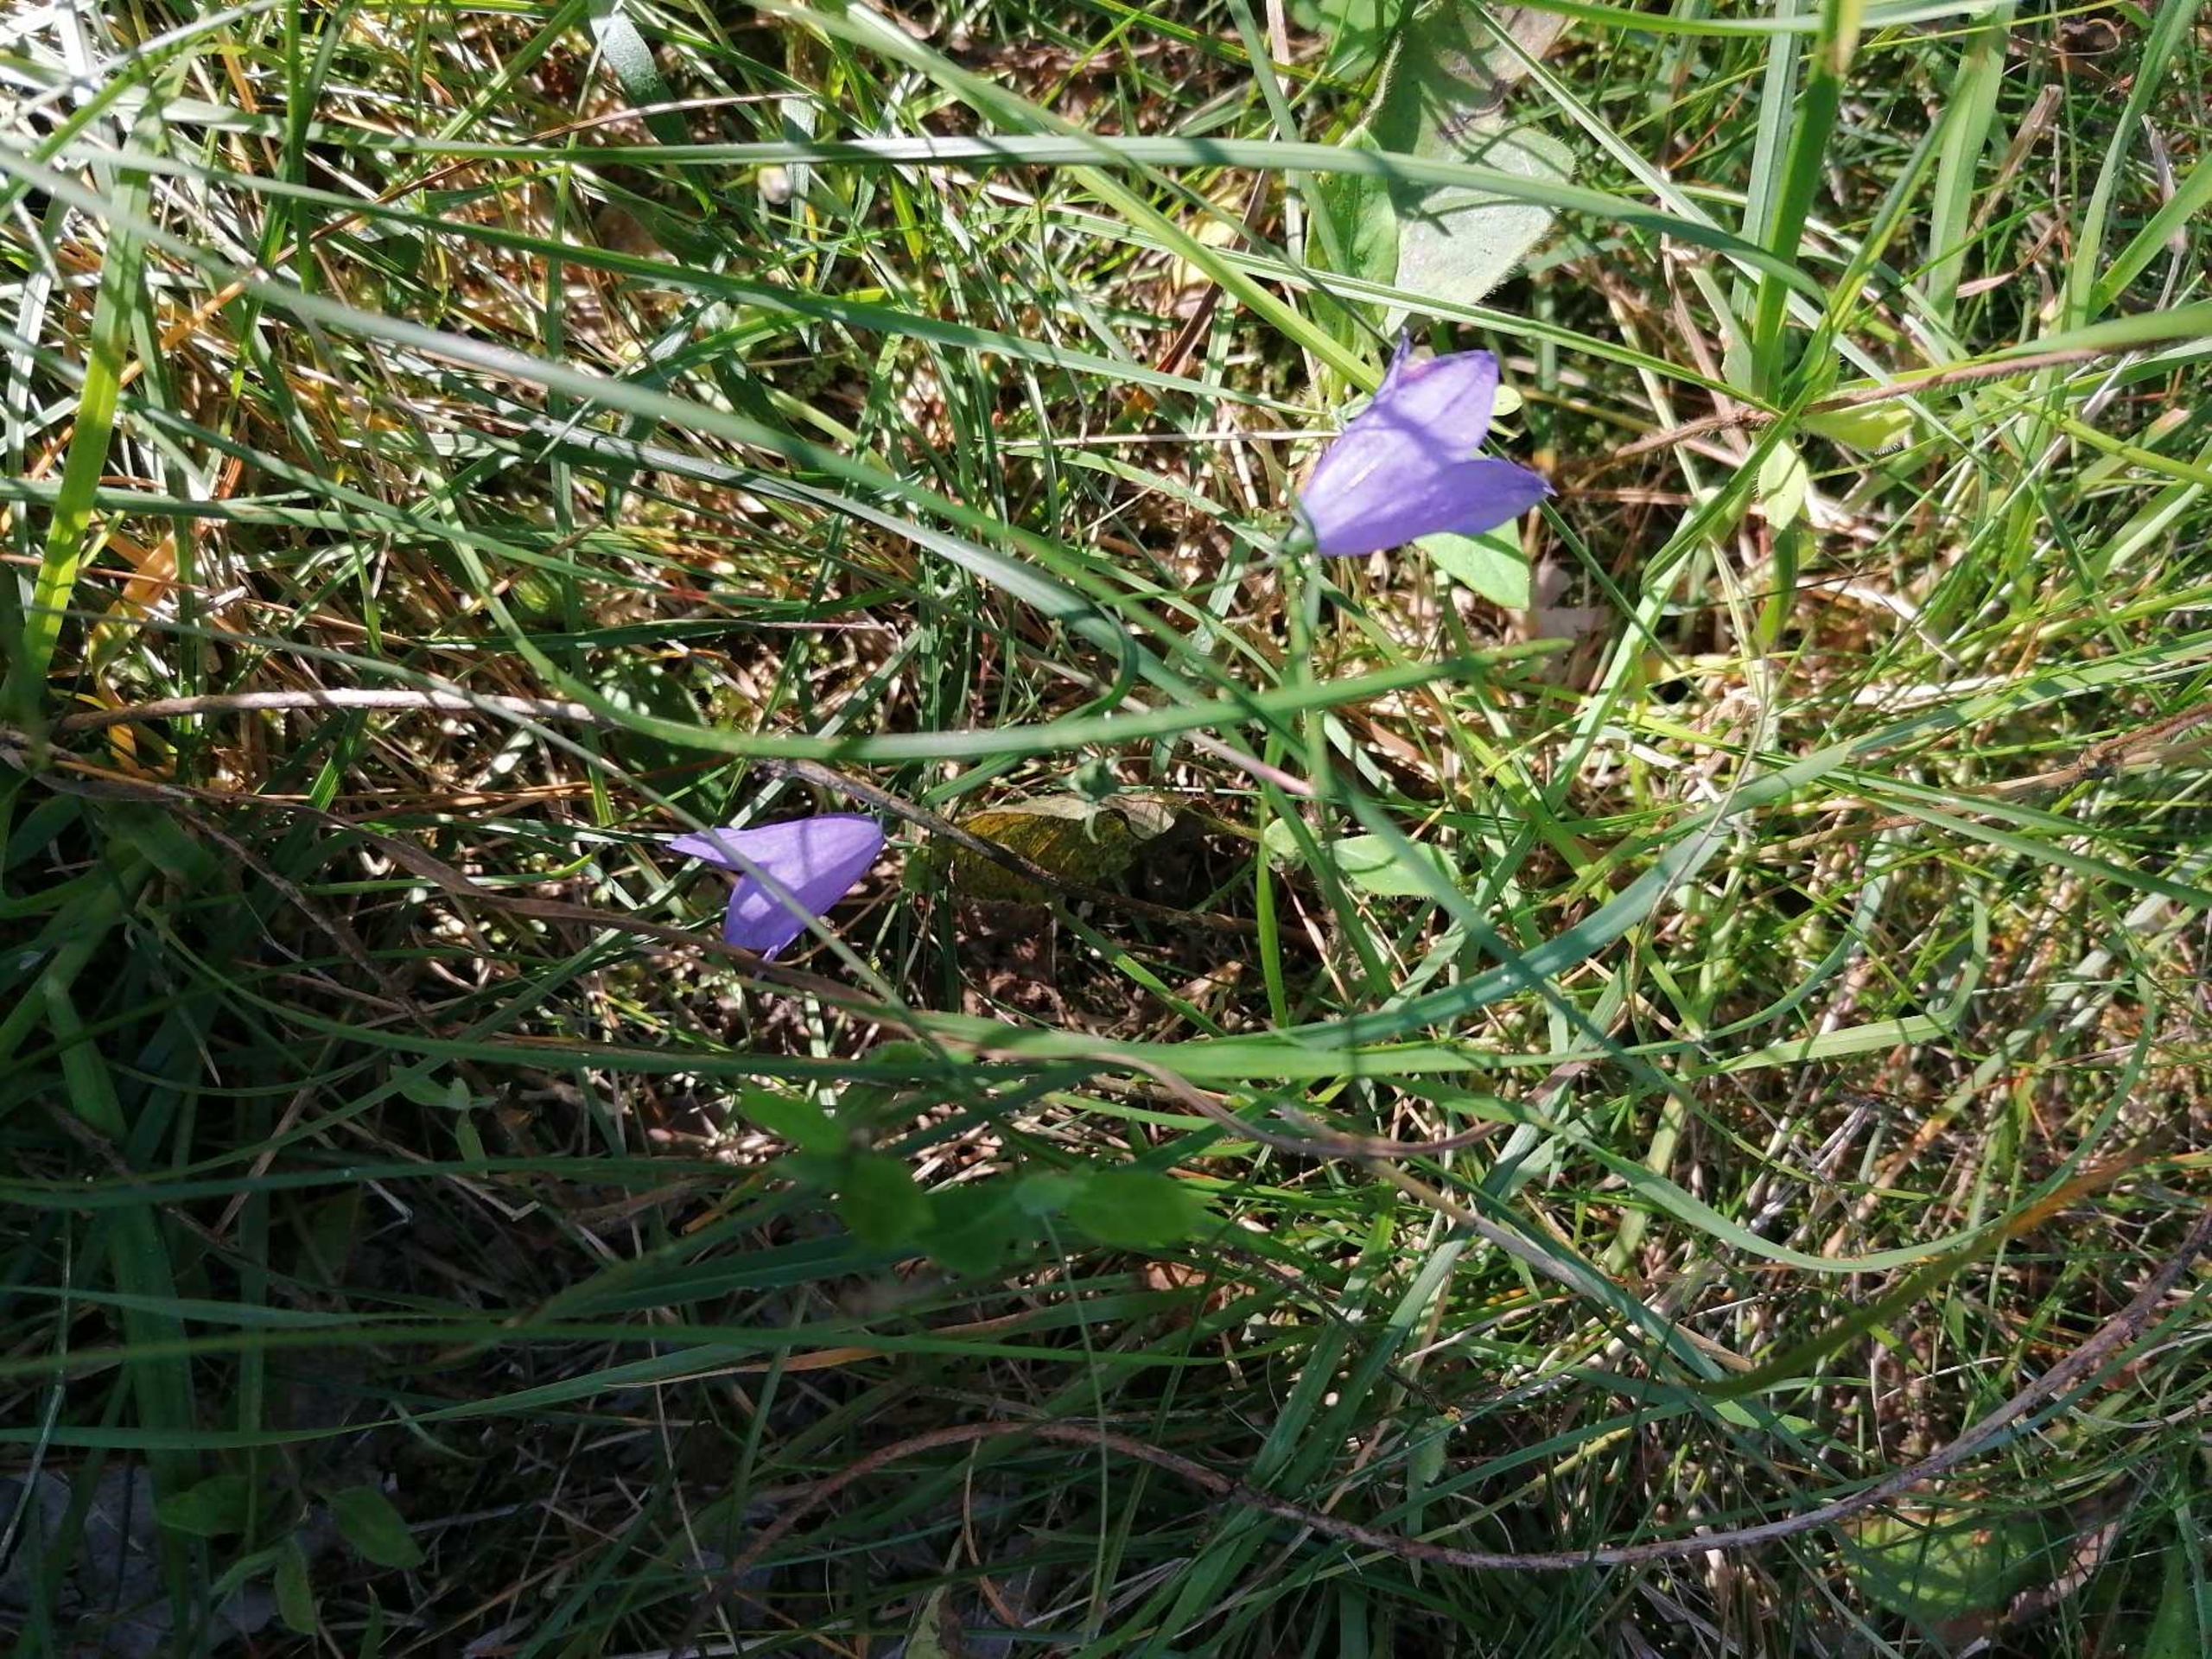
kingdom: Plantae
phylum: Tracheophyta
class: Magnoliopsida
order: Asterales
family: Campanulaceae
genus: Campanula
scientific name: Campanula rotundifolia
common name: Liden klokke
